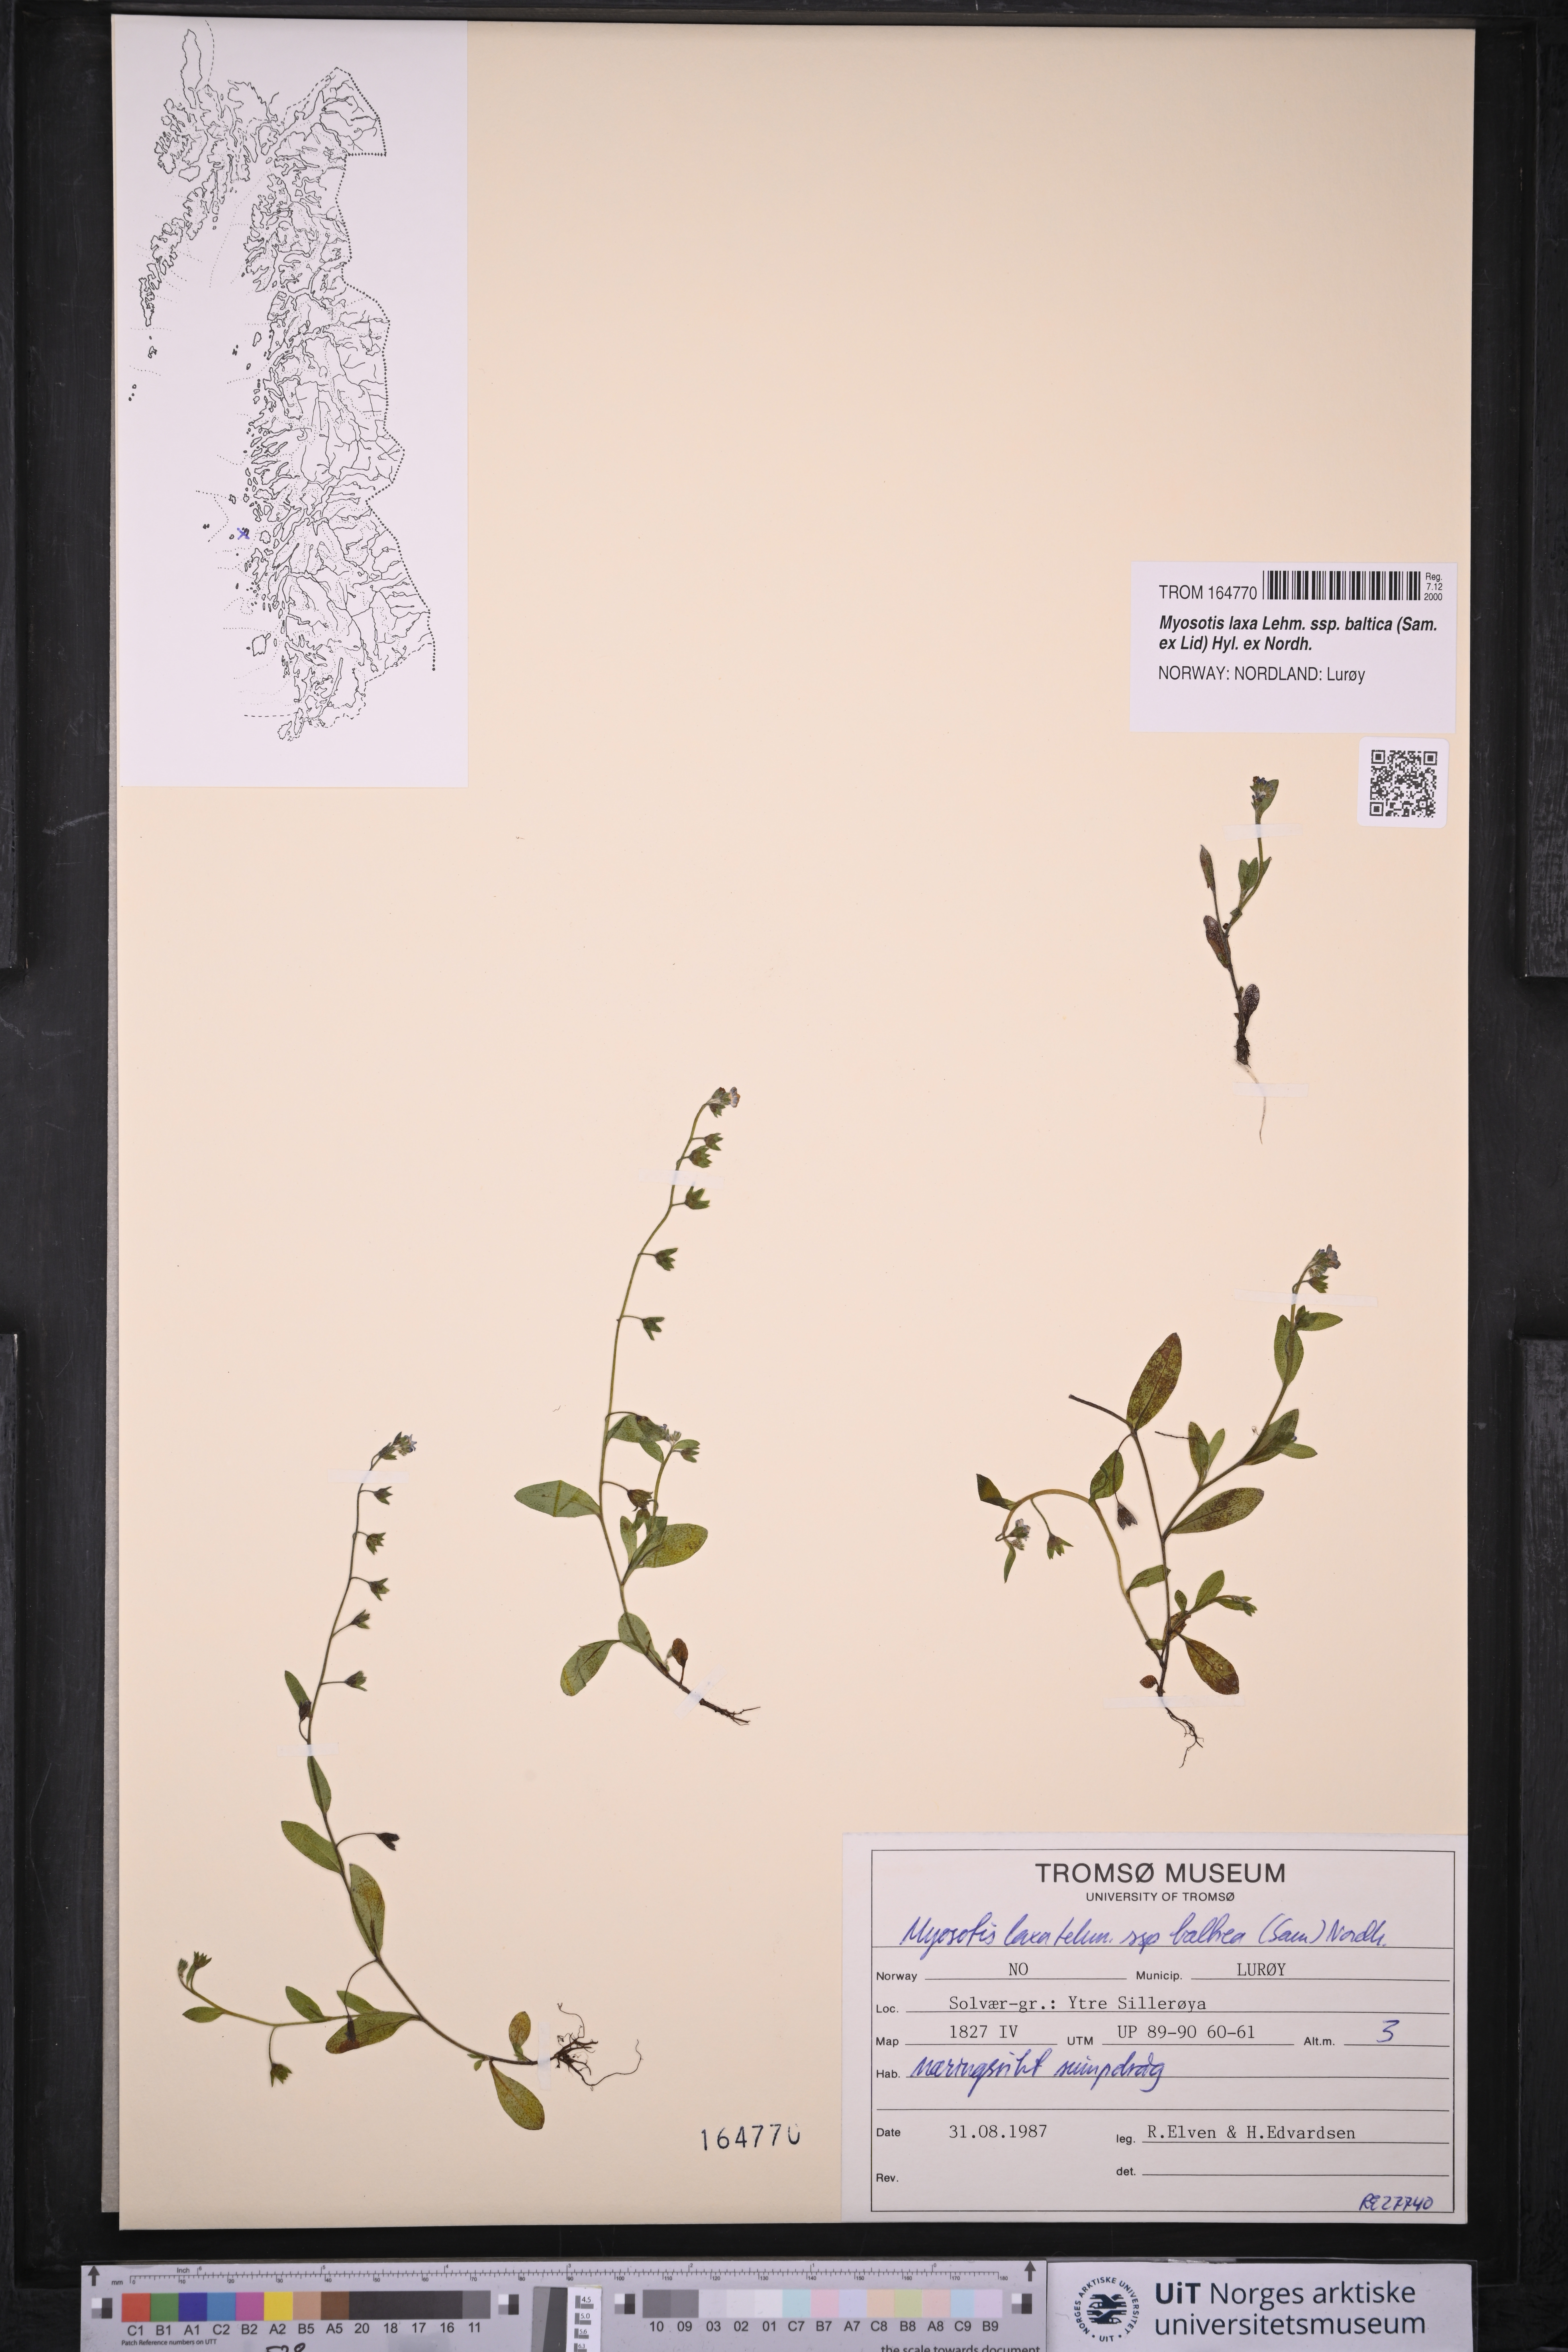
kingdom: Plantae
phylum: Tracheophyta
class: Magnoliopsida
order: Boraginales
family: Boraginaceae
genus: Myosotis
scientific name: Myosotis laxa
